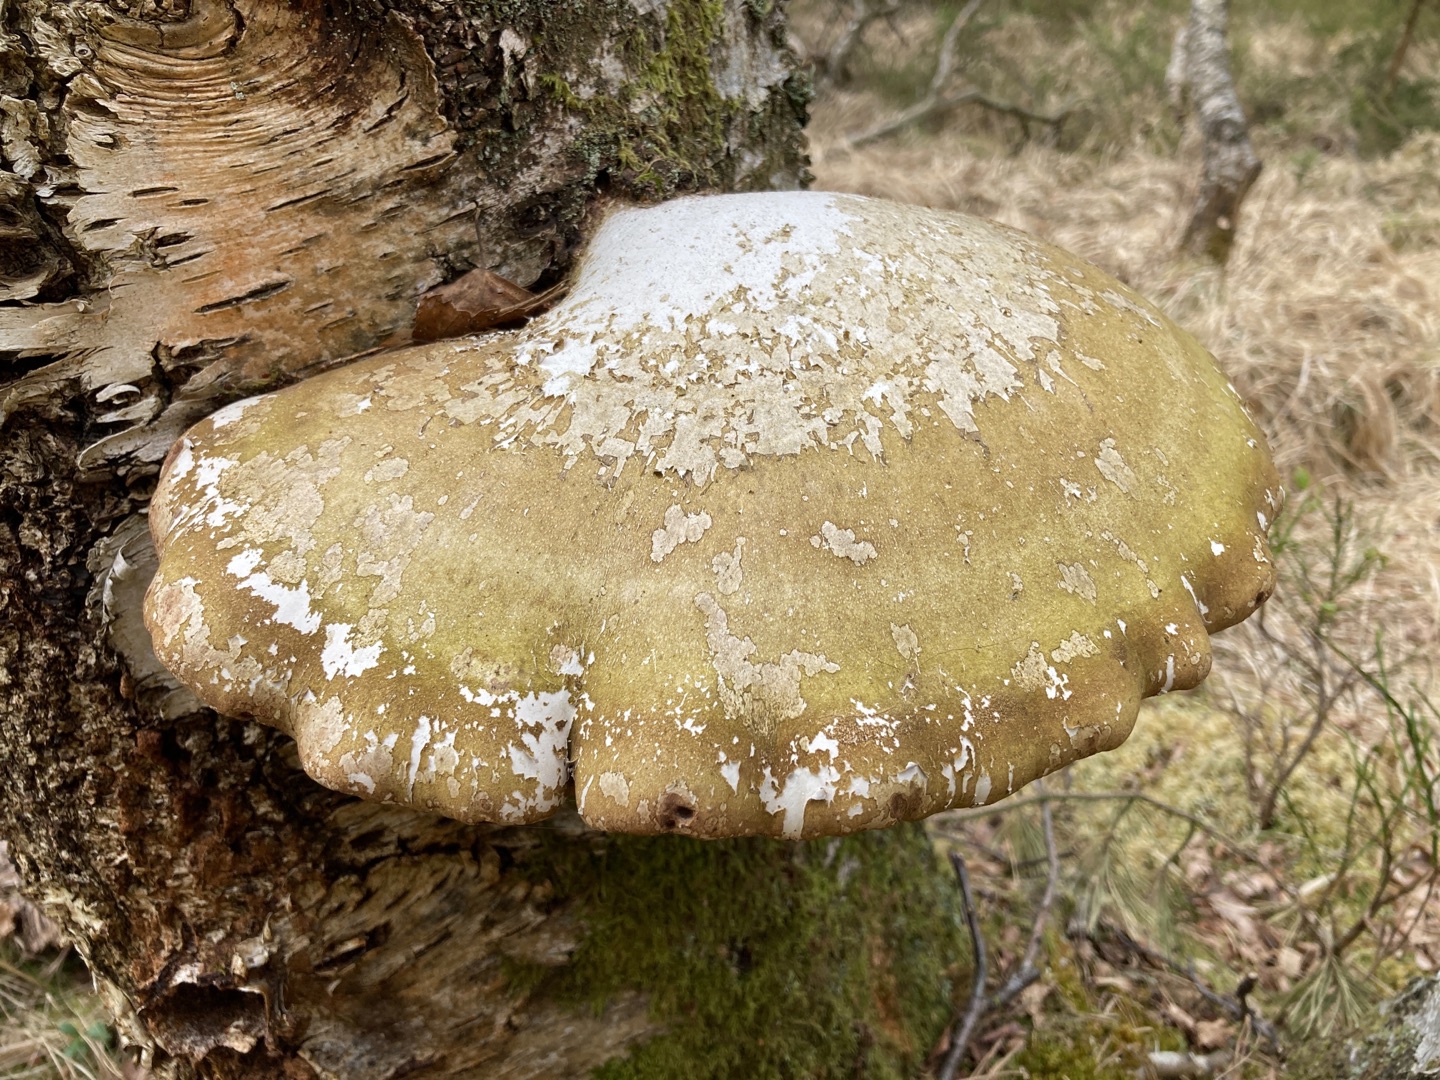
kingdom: Fungi
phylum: Basidiomycota
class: Agaricomycetes
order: Polyporales
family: Fomitopsidaceae
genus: Fomitopsis
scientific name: Fomitopsis betulina
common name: Birkeporesvamp
